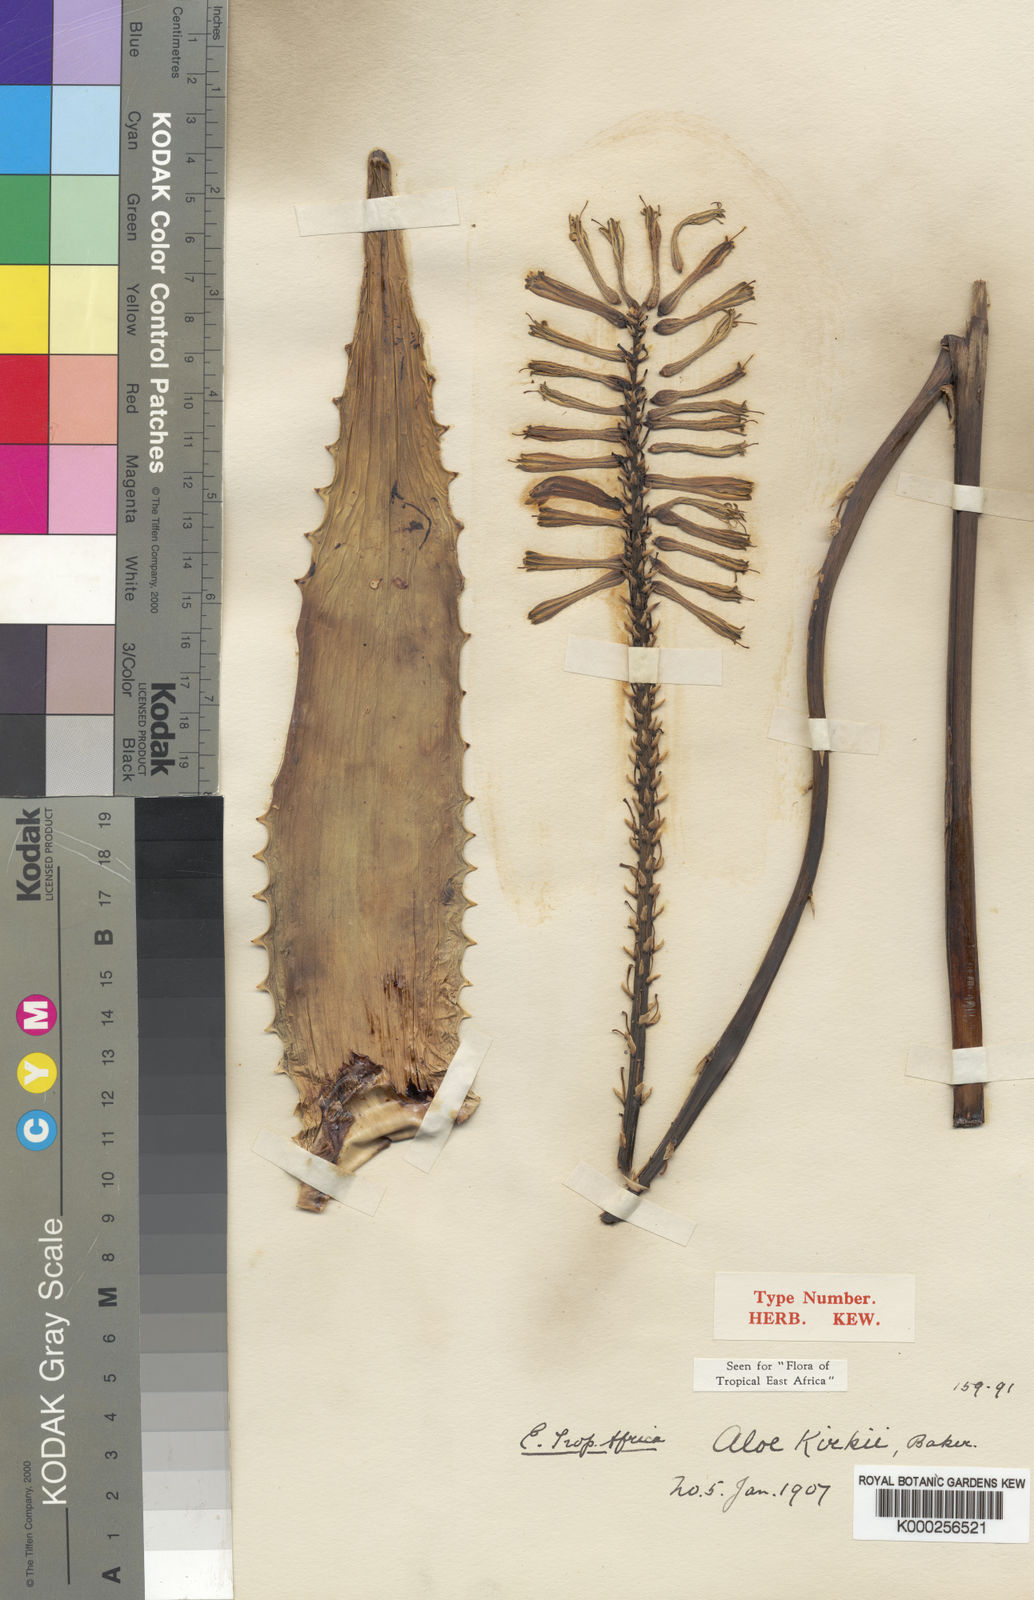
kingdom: Plantae
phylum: Tracheophyta
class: Liliopsida
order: Asparagales
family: Asphodelaceae
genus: Aloe
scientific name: Aloe kirkii
